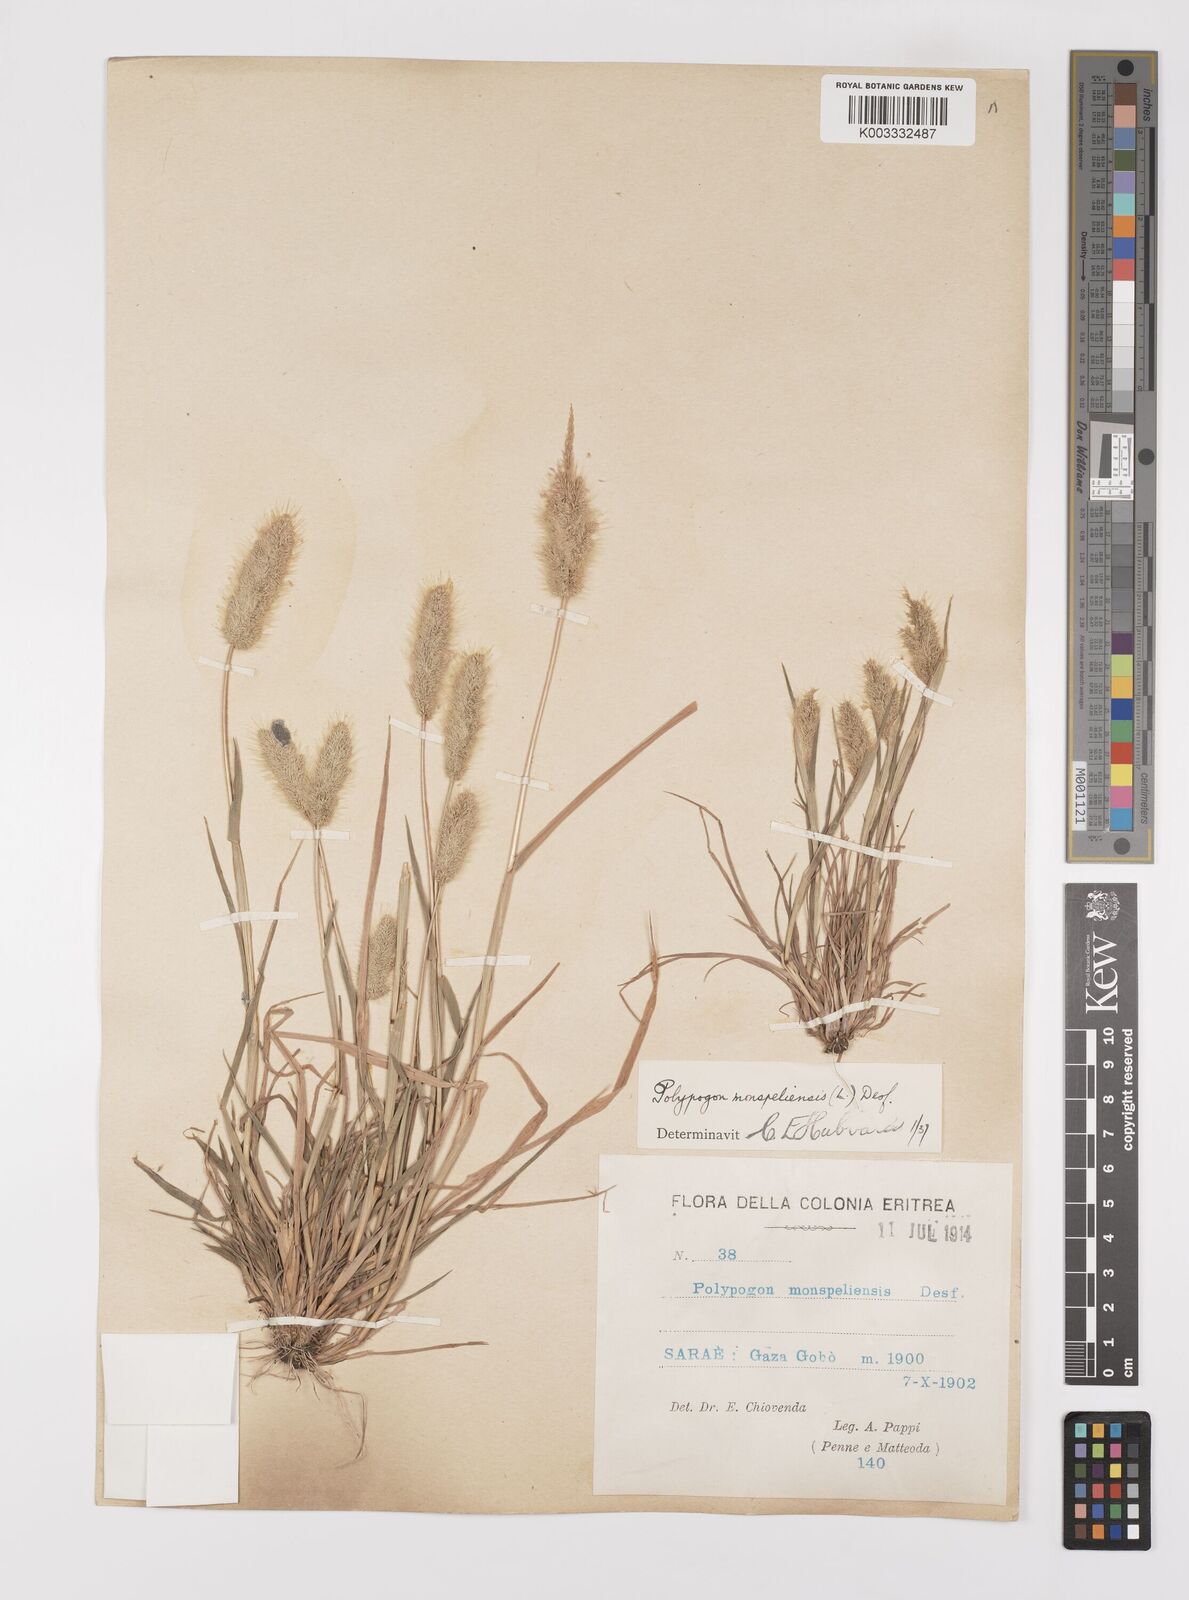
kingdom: Plantae
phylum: Tracheophyta
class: Liliopsida
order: Poales
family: Poaceae
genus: Polypogon
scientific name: Polypogon monspeliensis
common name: Annual rabbitsfoot grass
